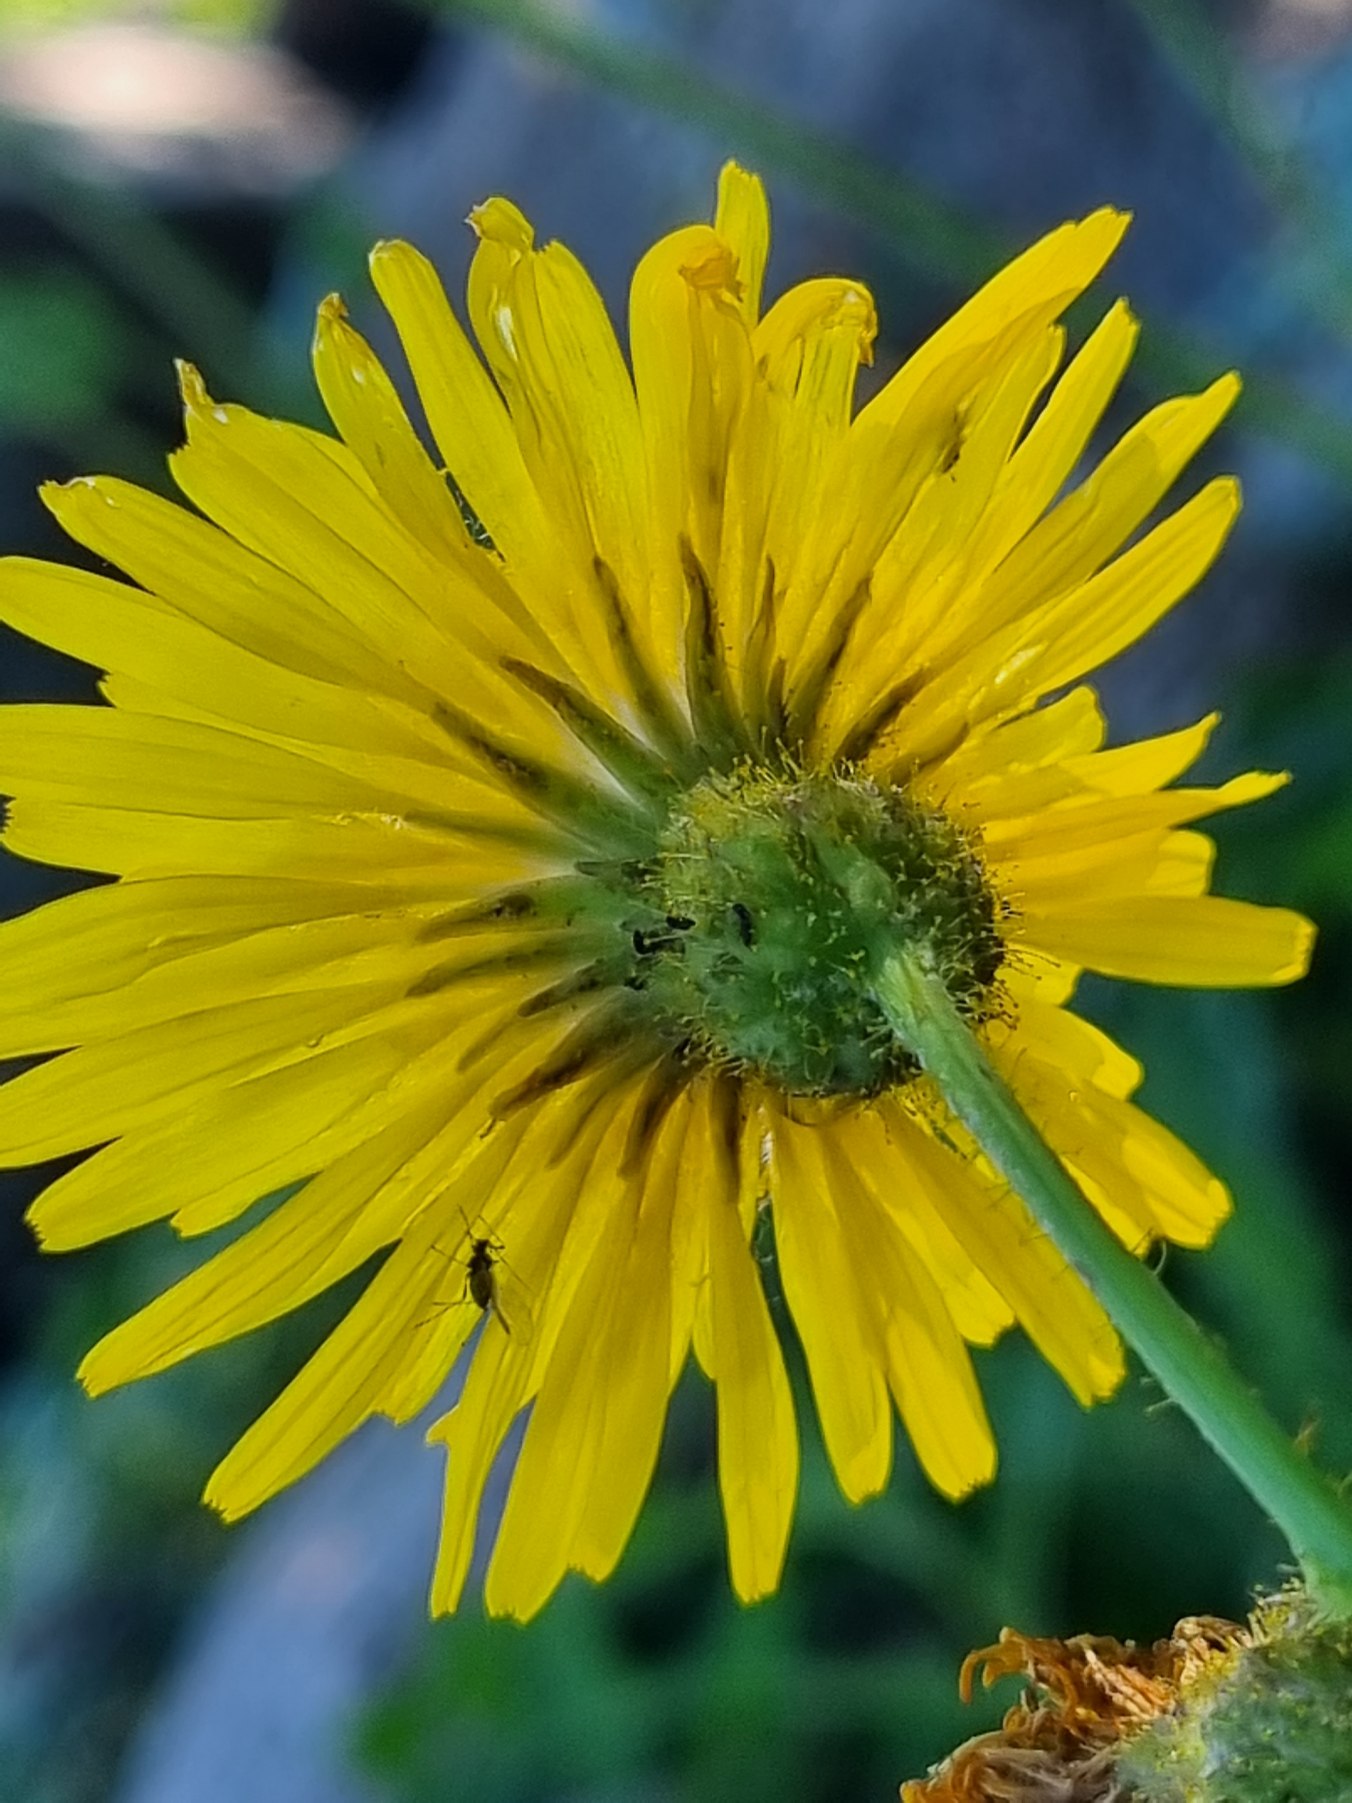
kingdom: Plantae
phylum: Tracheophyta
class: Magnoliopsida
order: Asterales
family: Asteraceae
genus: Sonchus
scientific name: Sonchus arvensis
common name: Ager-svinemælk
